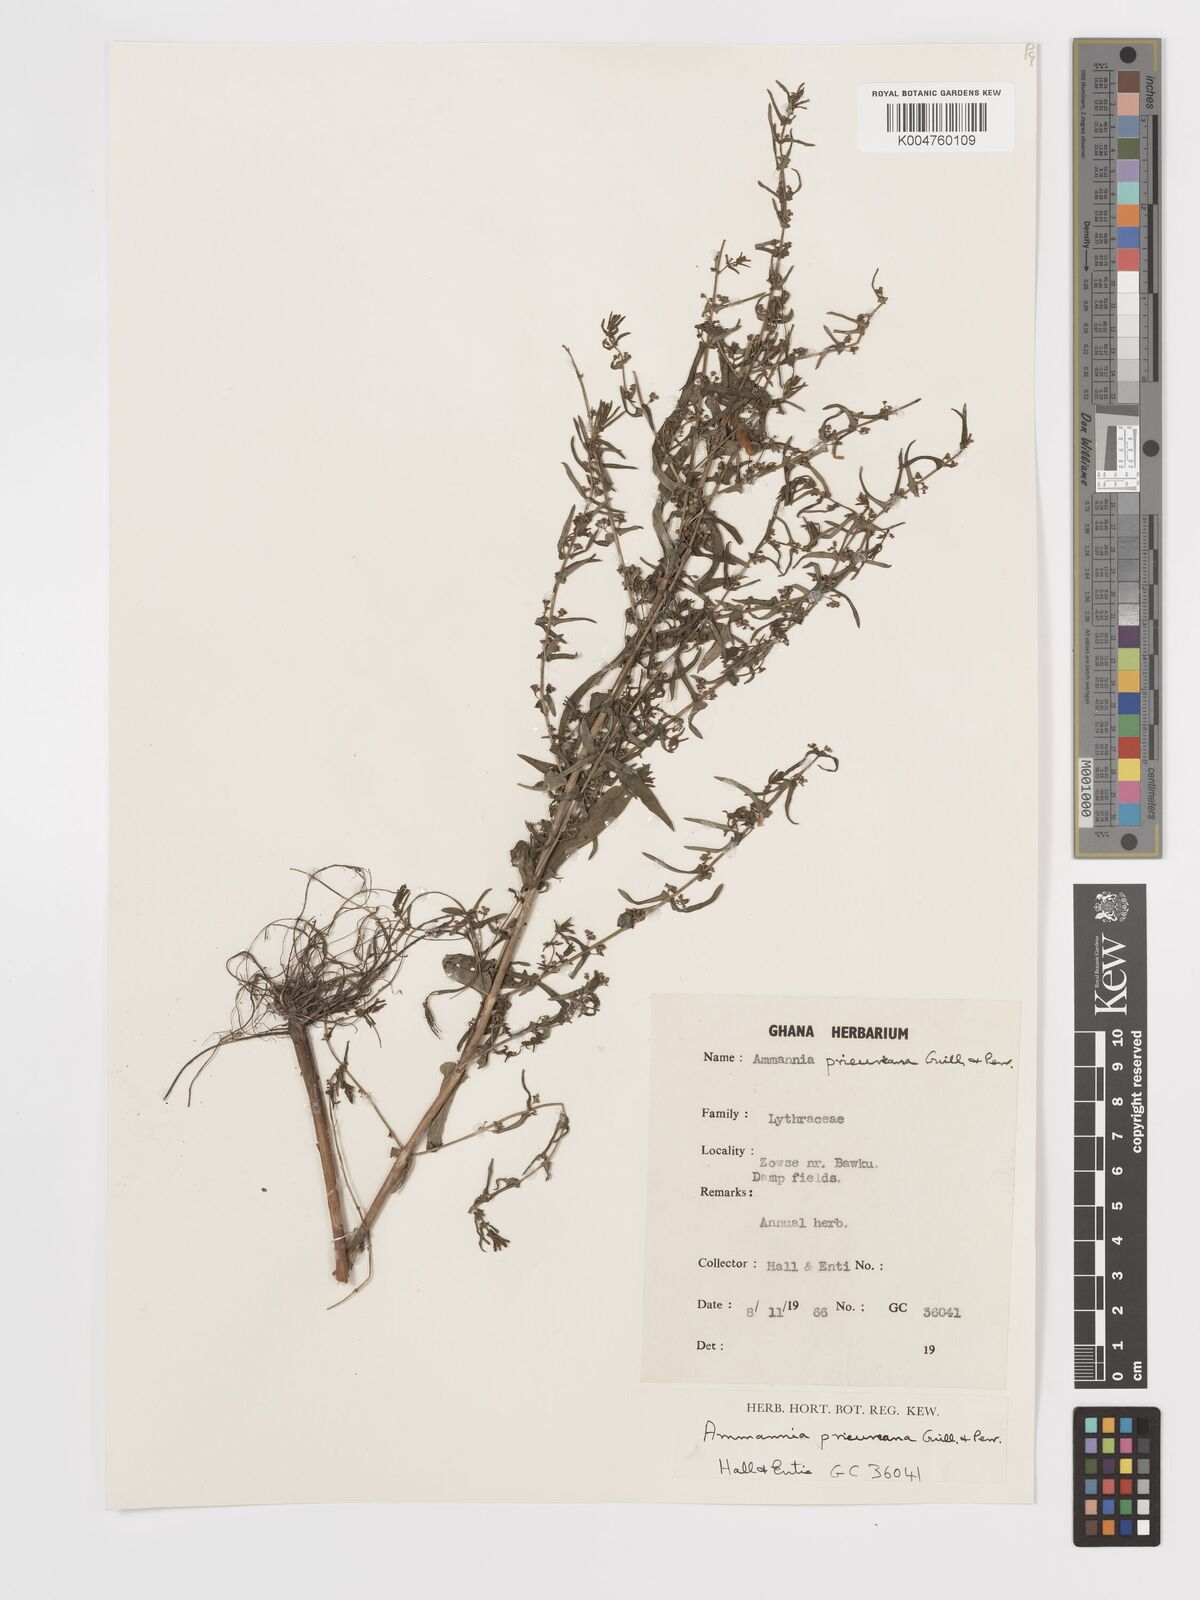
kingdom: Plantae
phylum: Tracheophyta
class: Magnoliopsida
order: Myrtales
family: Lythraceae
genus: Ammannia
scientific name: Ammannia prieuriana
